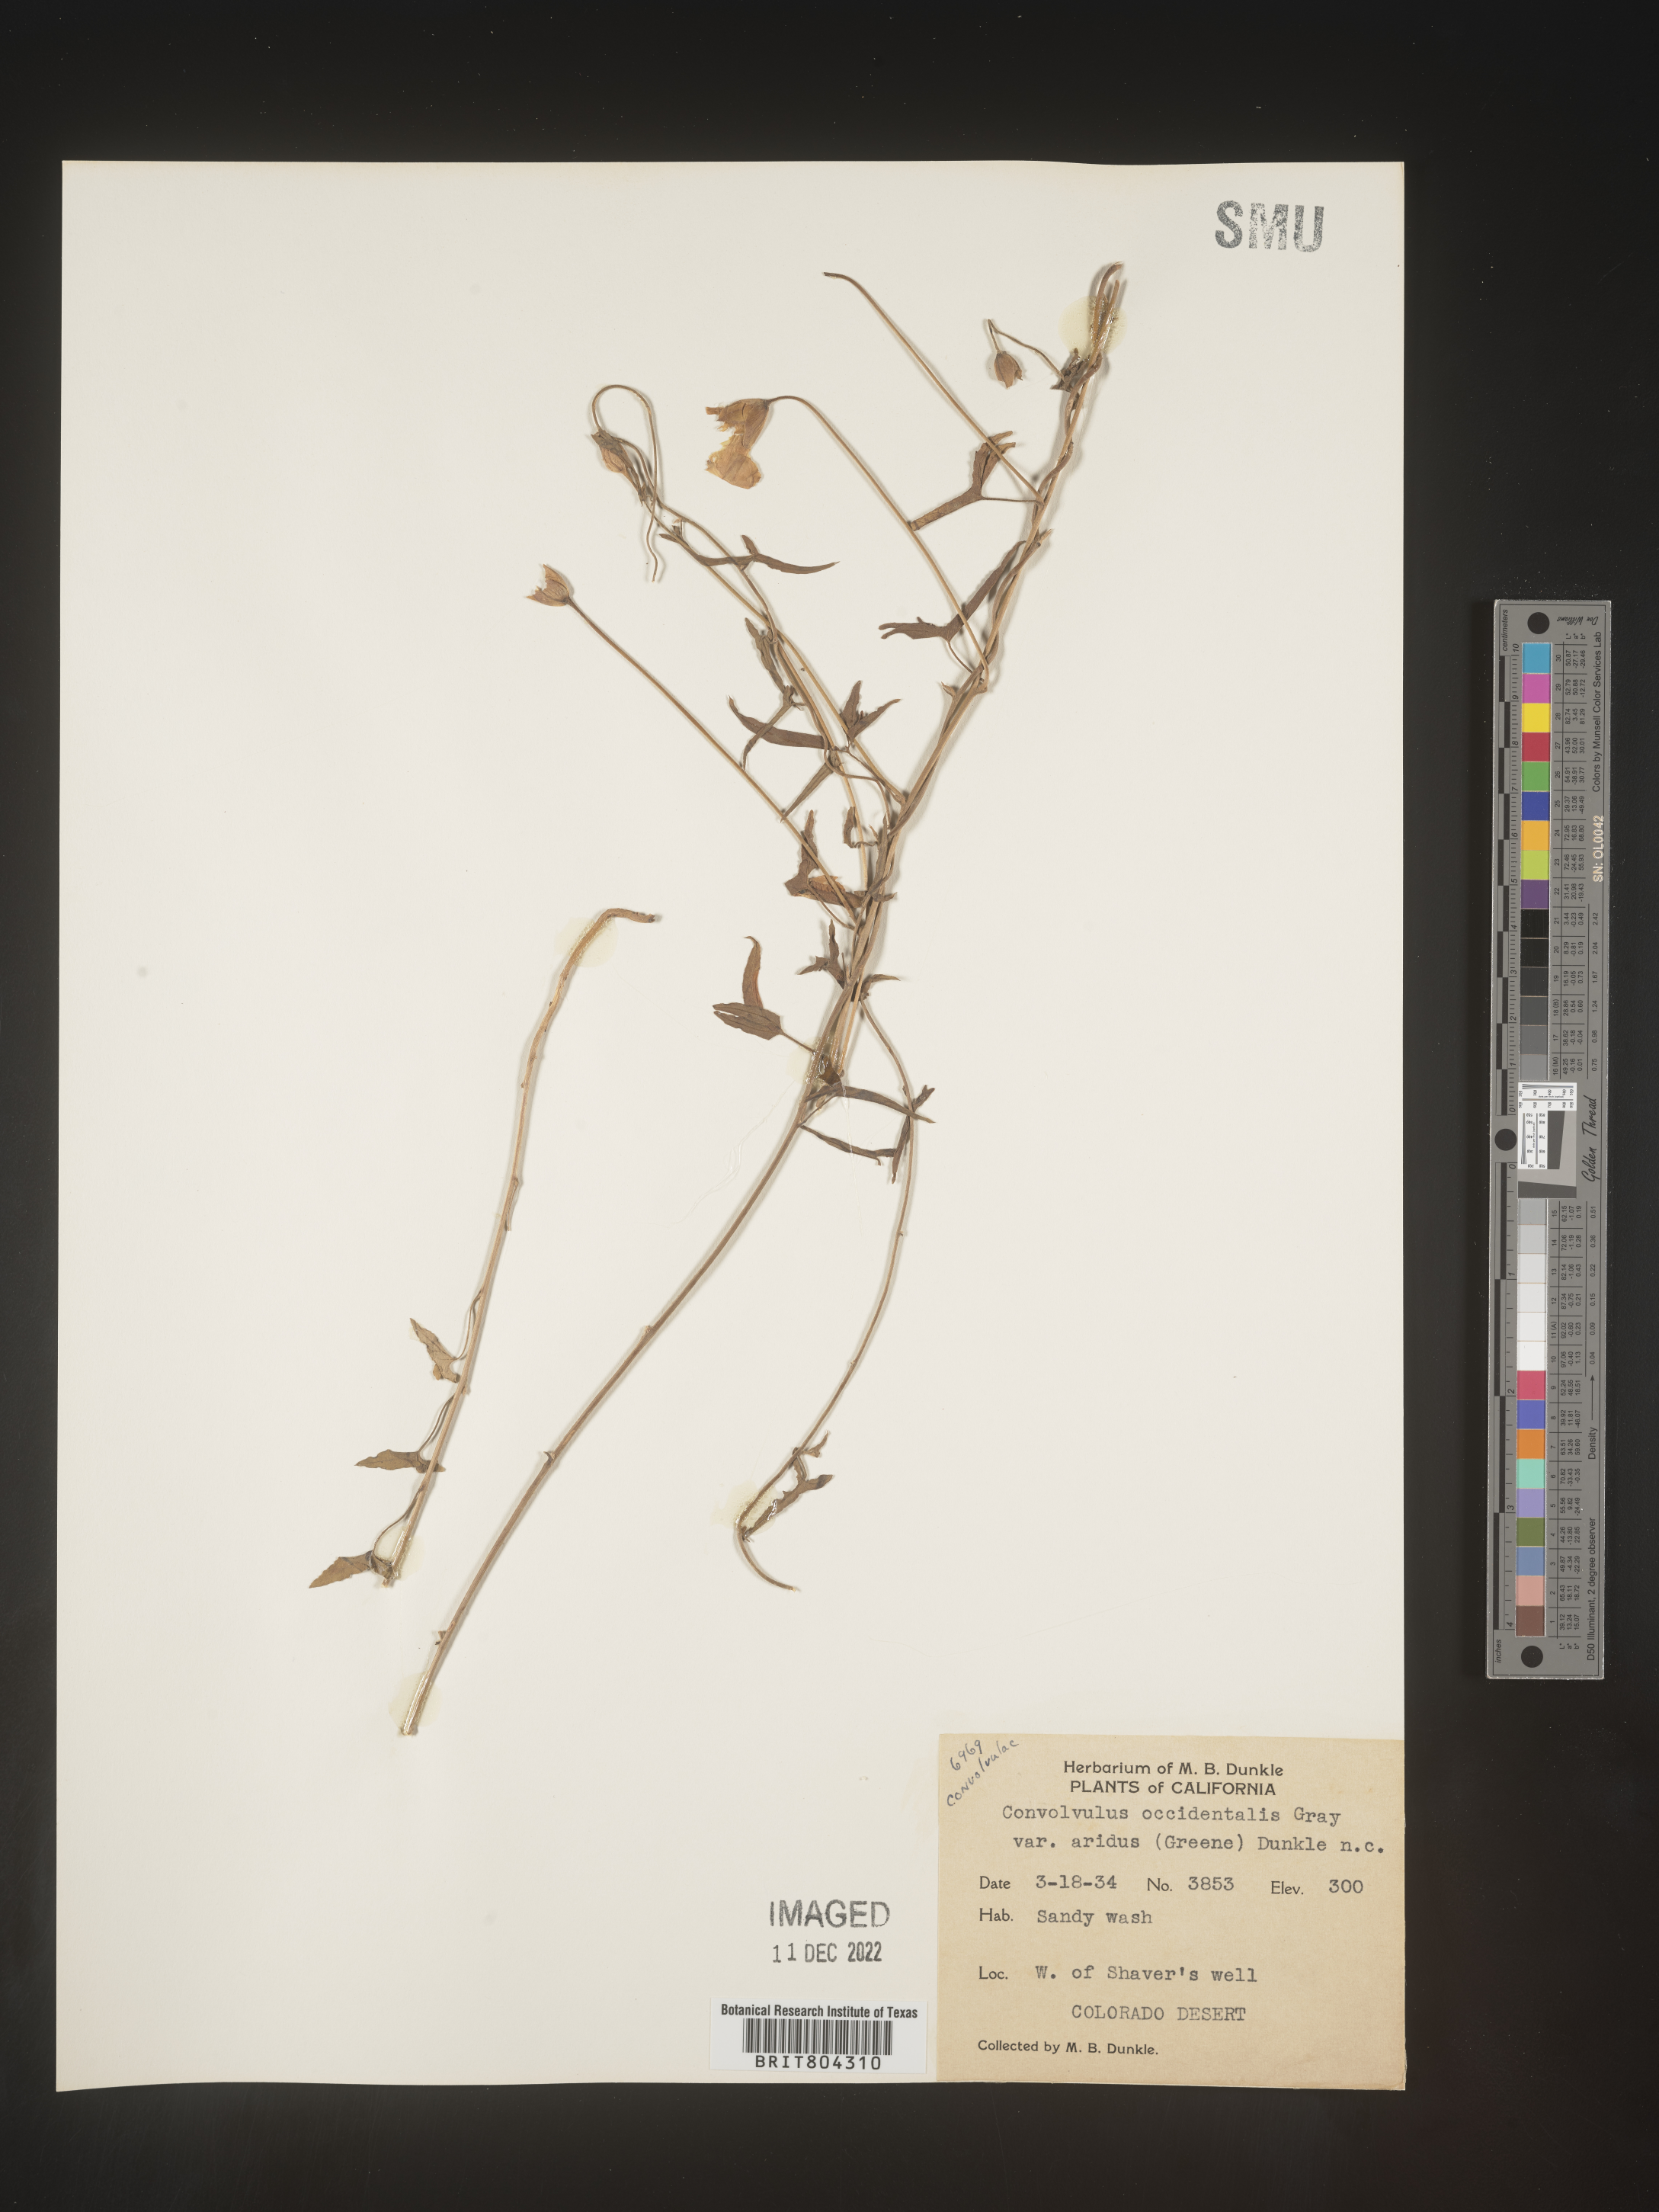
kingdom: Plantae
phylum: Tracheophyta
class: Magnoliopsida
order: Solanales
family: Convolvulaceae
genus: Calystegia
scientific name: Calystegia
